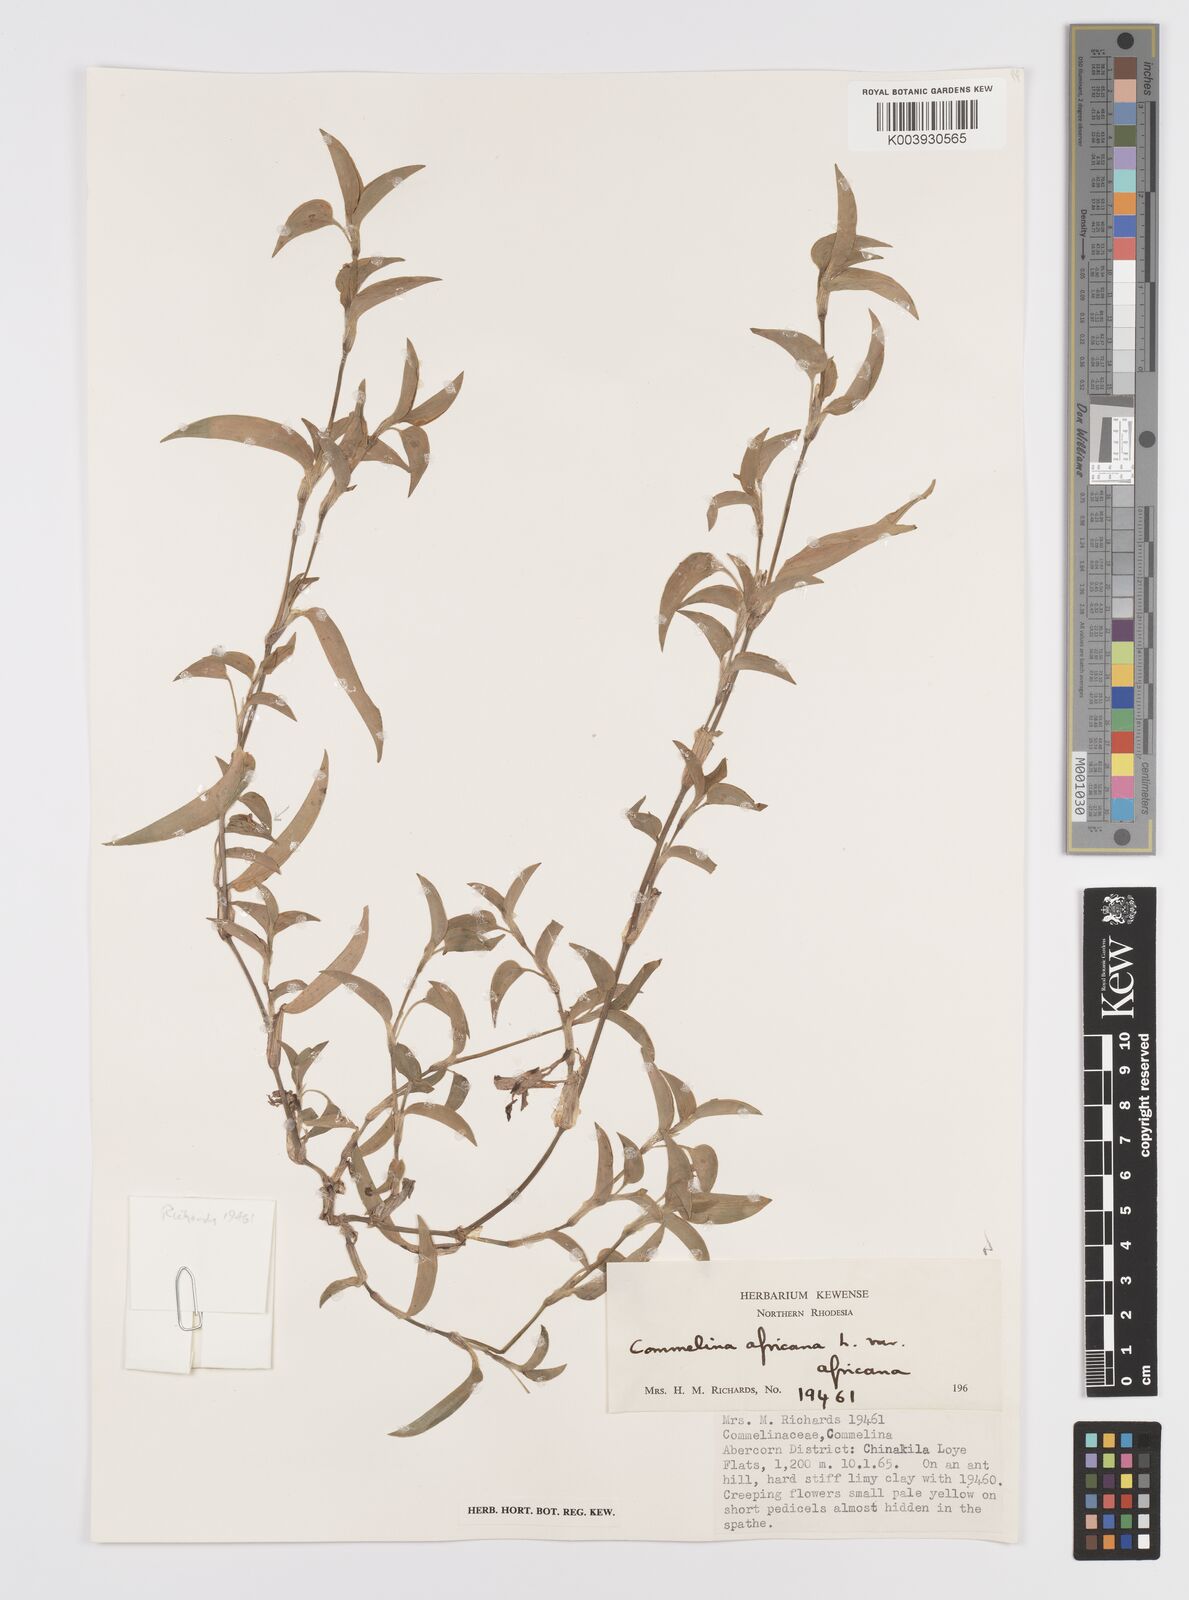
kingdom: Plantae
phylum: Tracheophyta
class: Liliopsida
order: Commelinales
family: Commelinaceae
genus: Commelina
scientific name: Commelina africana
